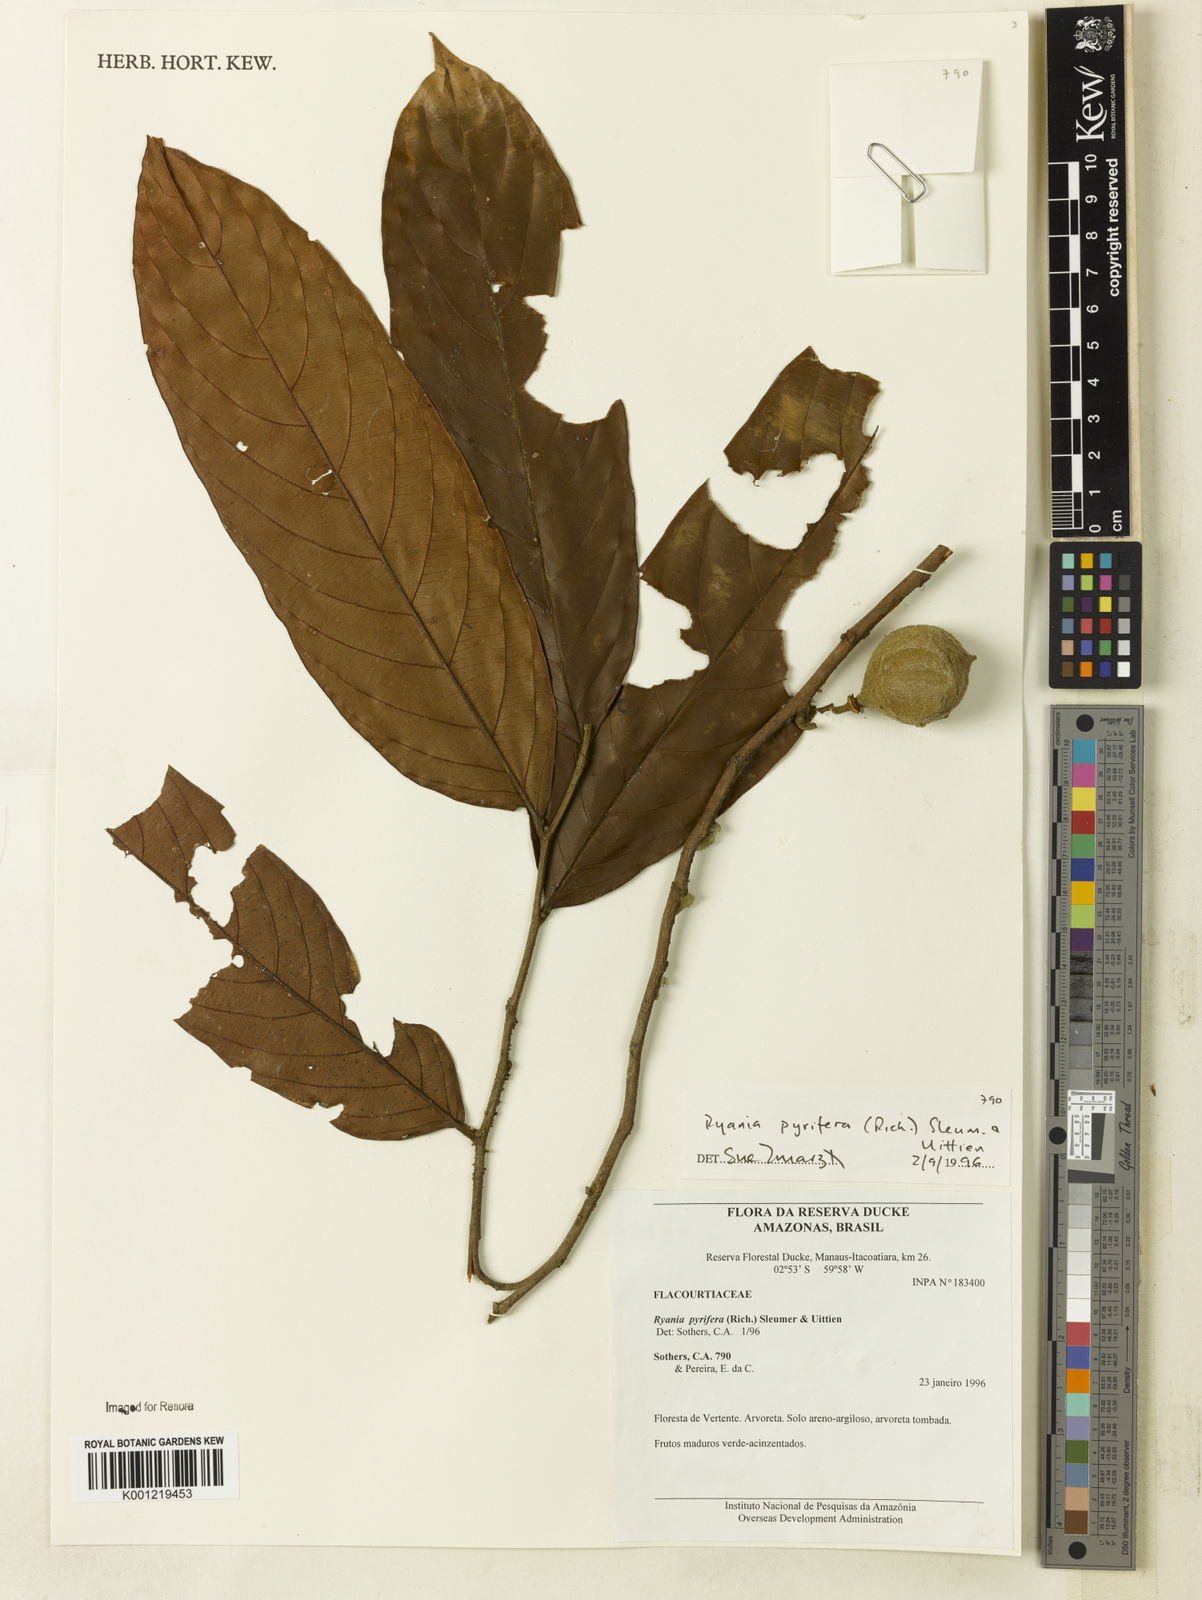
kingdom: Plantae
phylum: Tracheophyta
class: Magnoliopsida
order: Malpighiales
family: Salicaceae
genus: Ryania
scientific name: Ryania pyrifera
